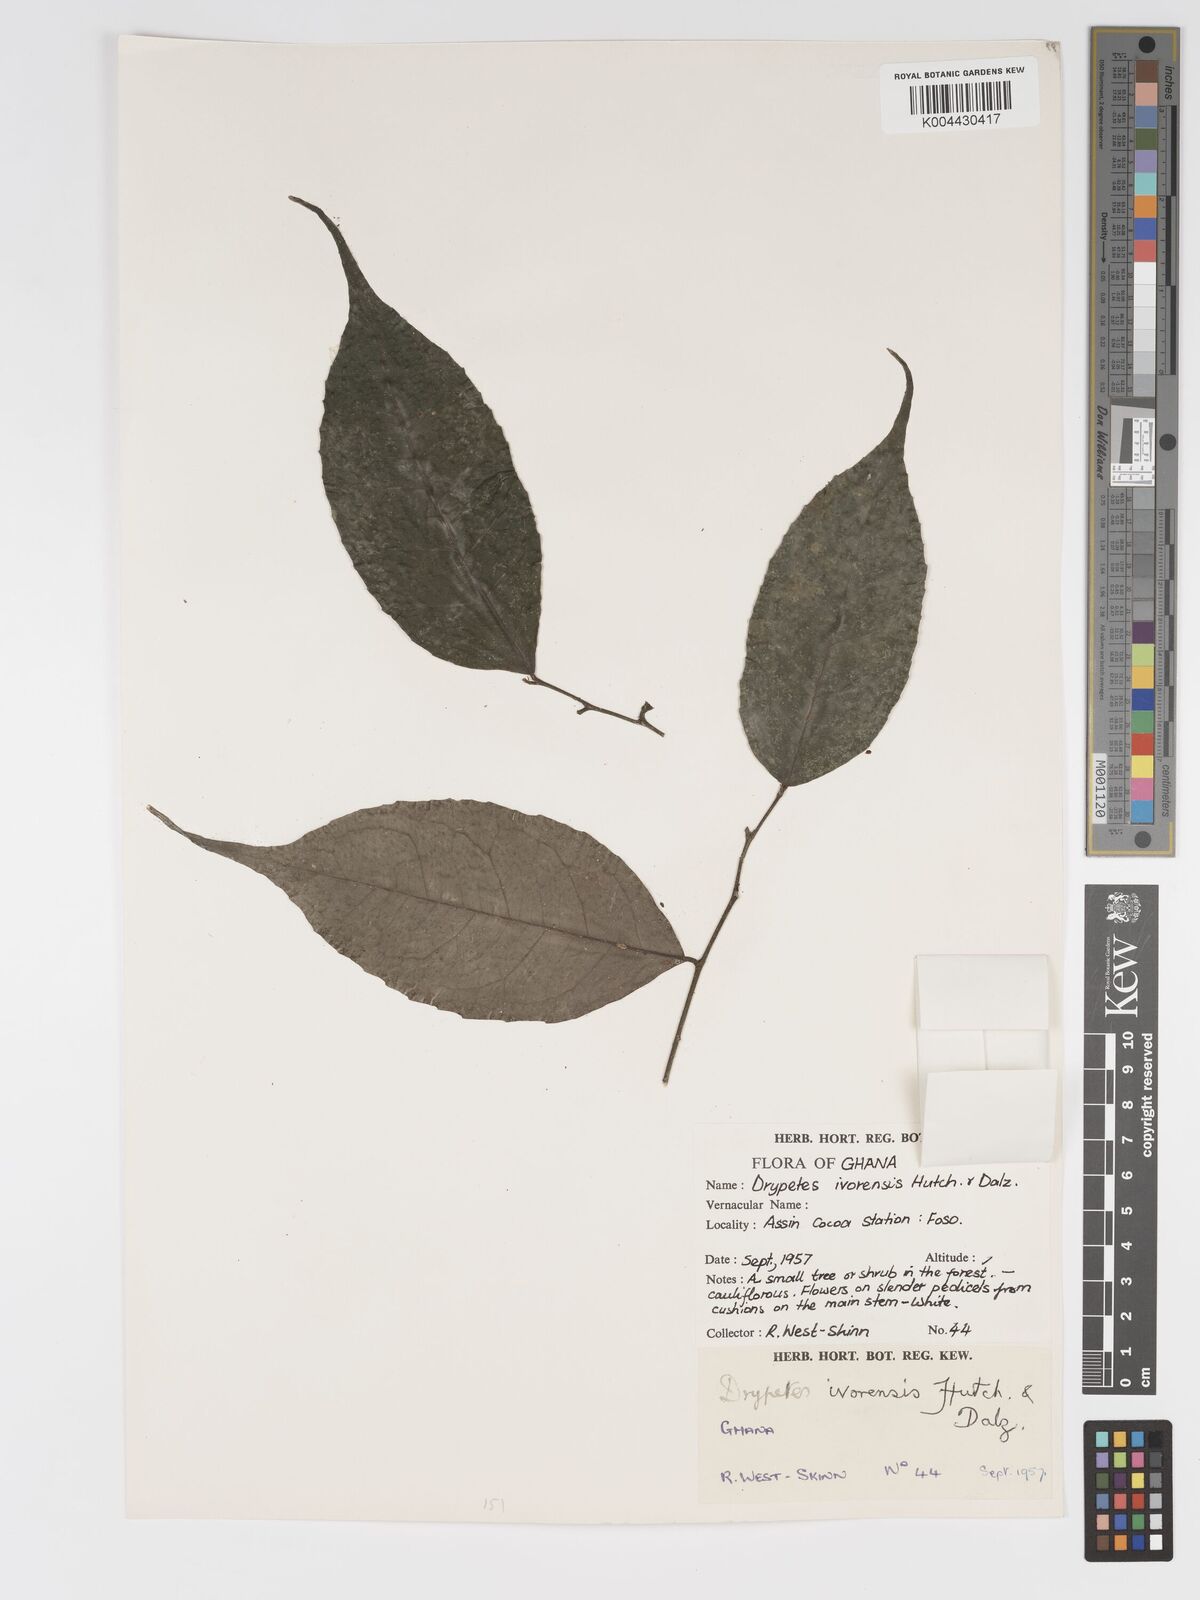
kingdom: Plantae
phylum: Tracheophyta
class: Magnoliopsida
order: Malpighiales
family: Putranjivaceae
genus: Drypetes
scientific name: Drypetes ivorensis
